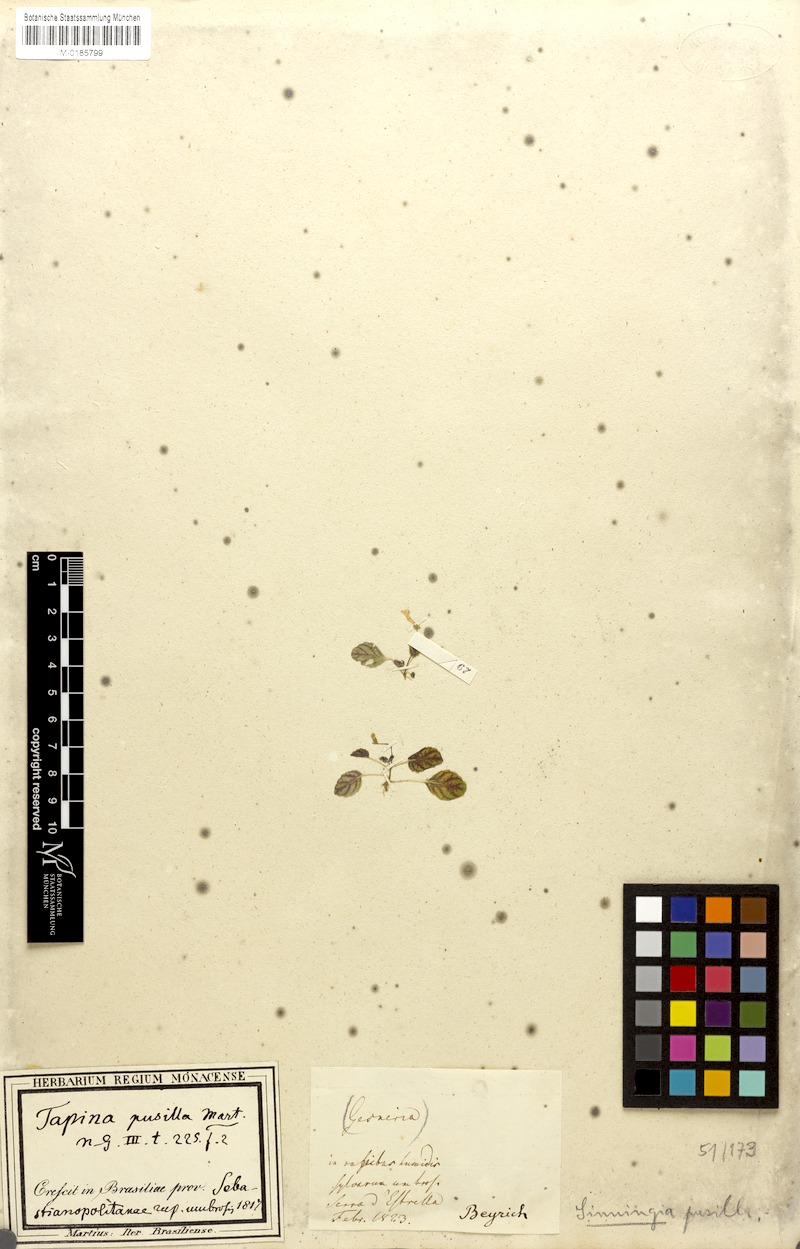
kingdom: Plantae
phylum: Tracheophyta
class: Magnoliopsida
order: Lamiales
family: Gesneriaceae
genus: Sinningia
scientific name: Sinningia pusilla
